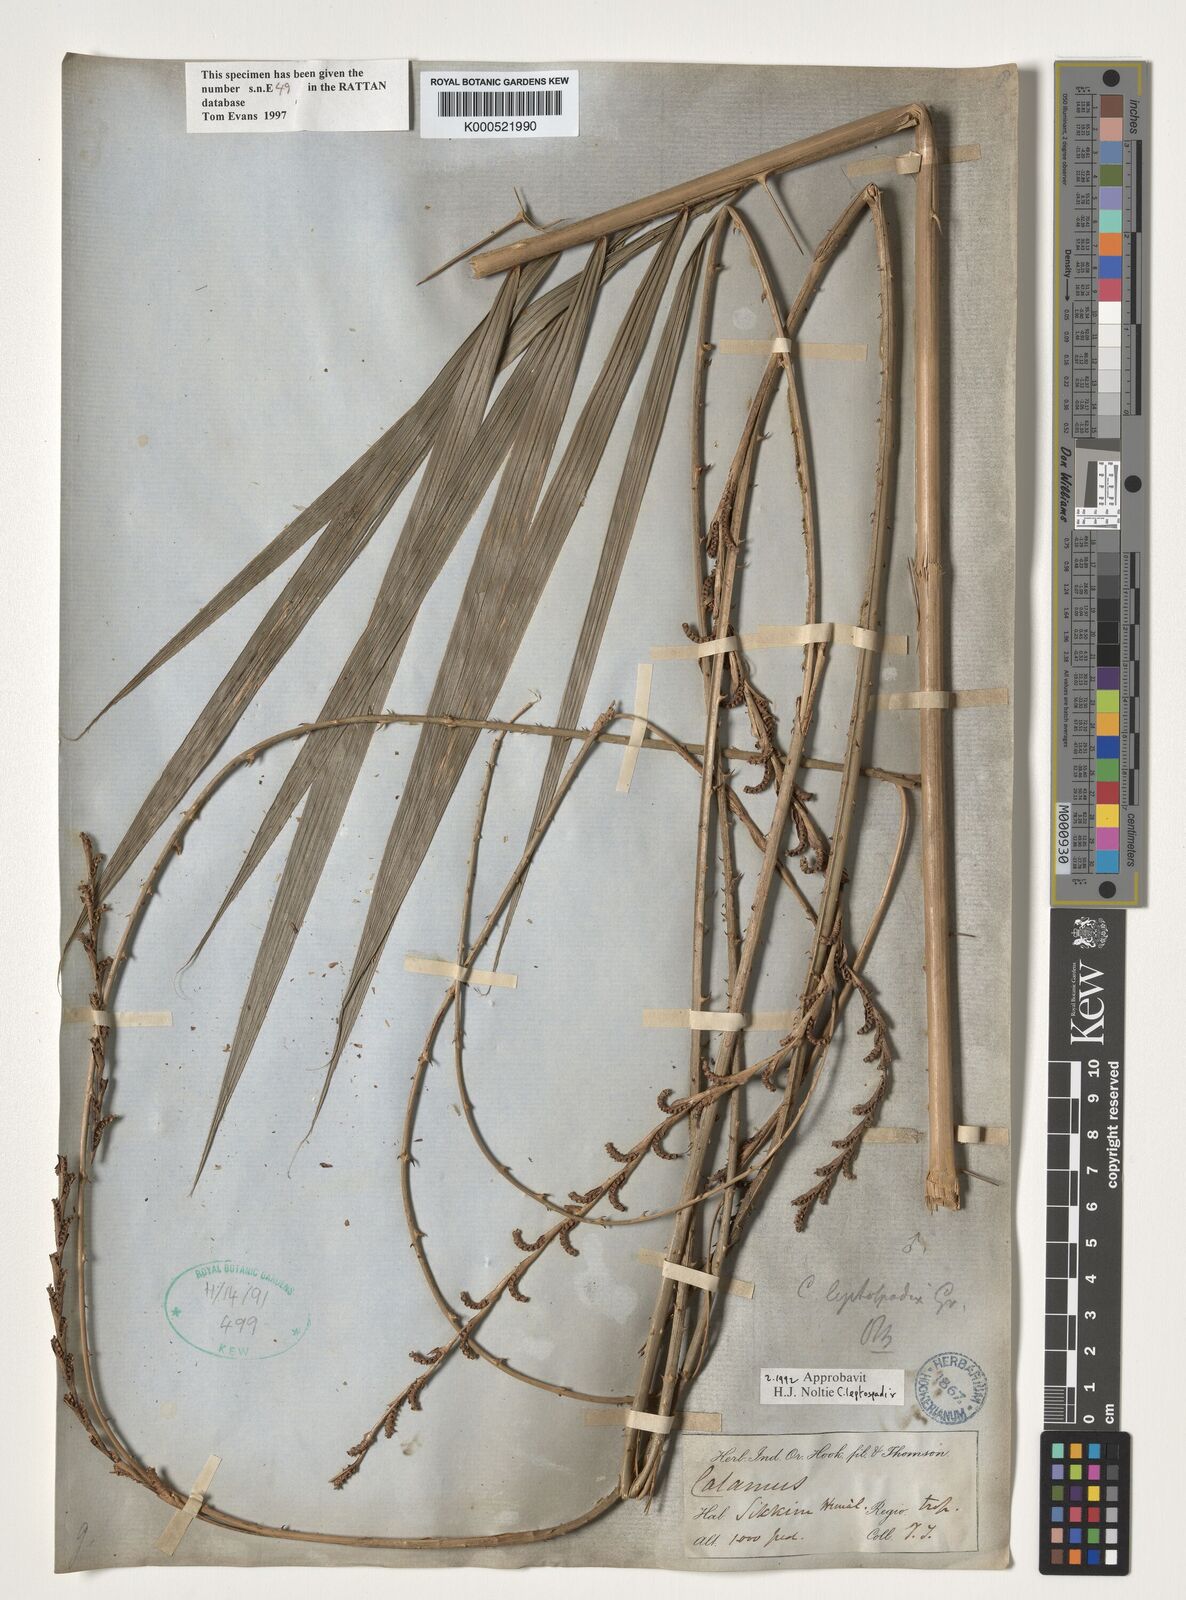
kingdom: Plantae
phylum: Tracheophyta
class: Liliopsida
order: Arecales
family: Arecaceae
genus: Calamus
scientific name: Calamus leptospadix
